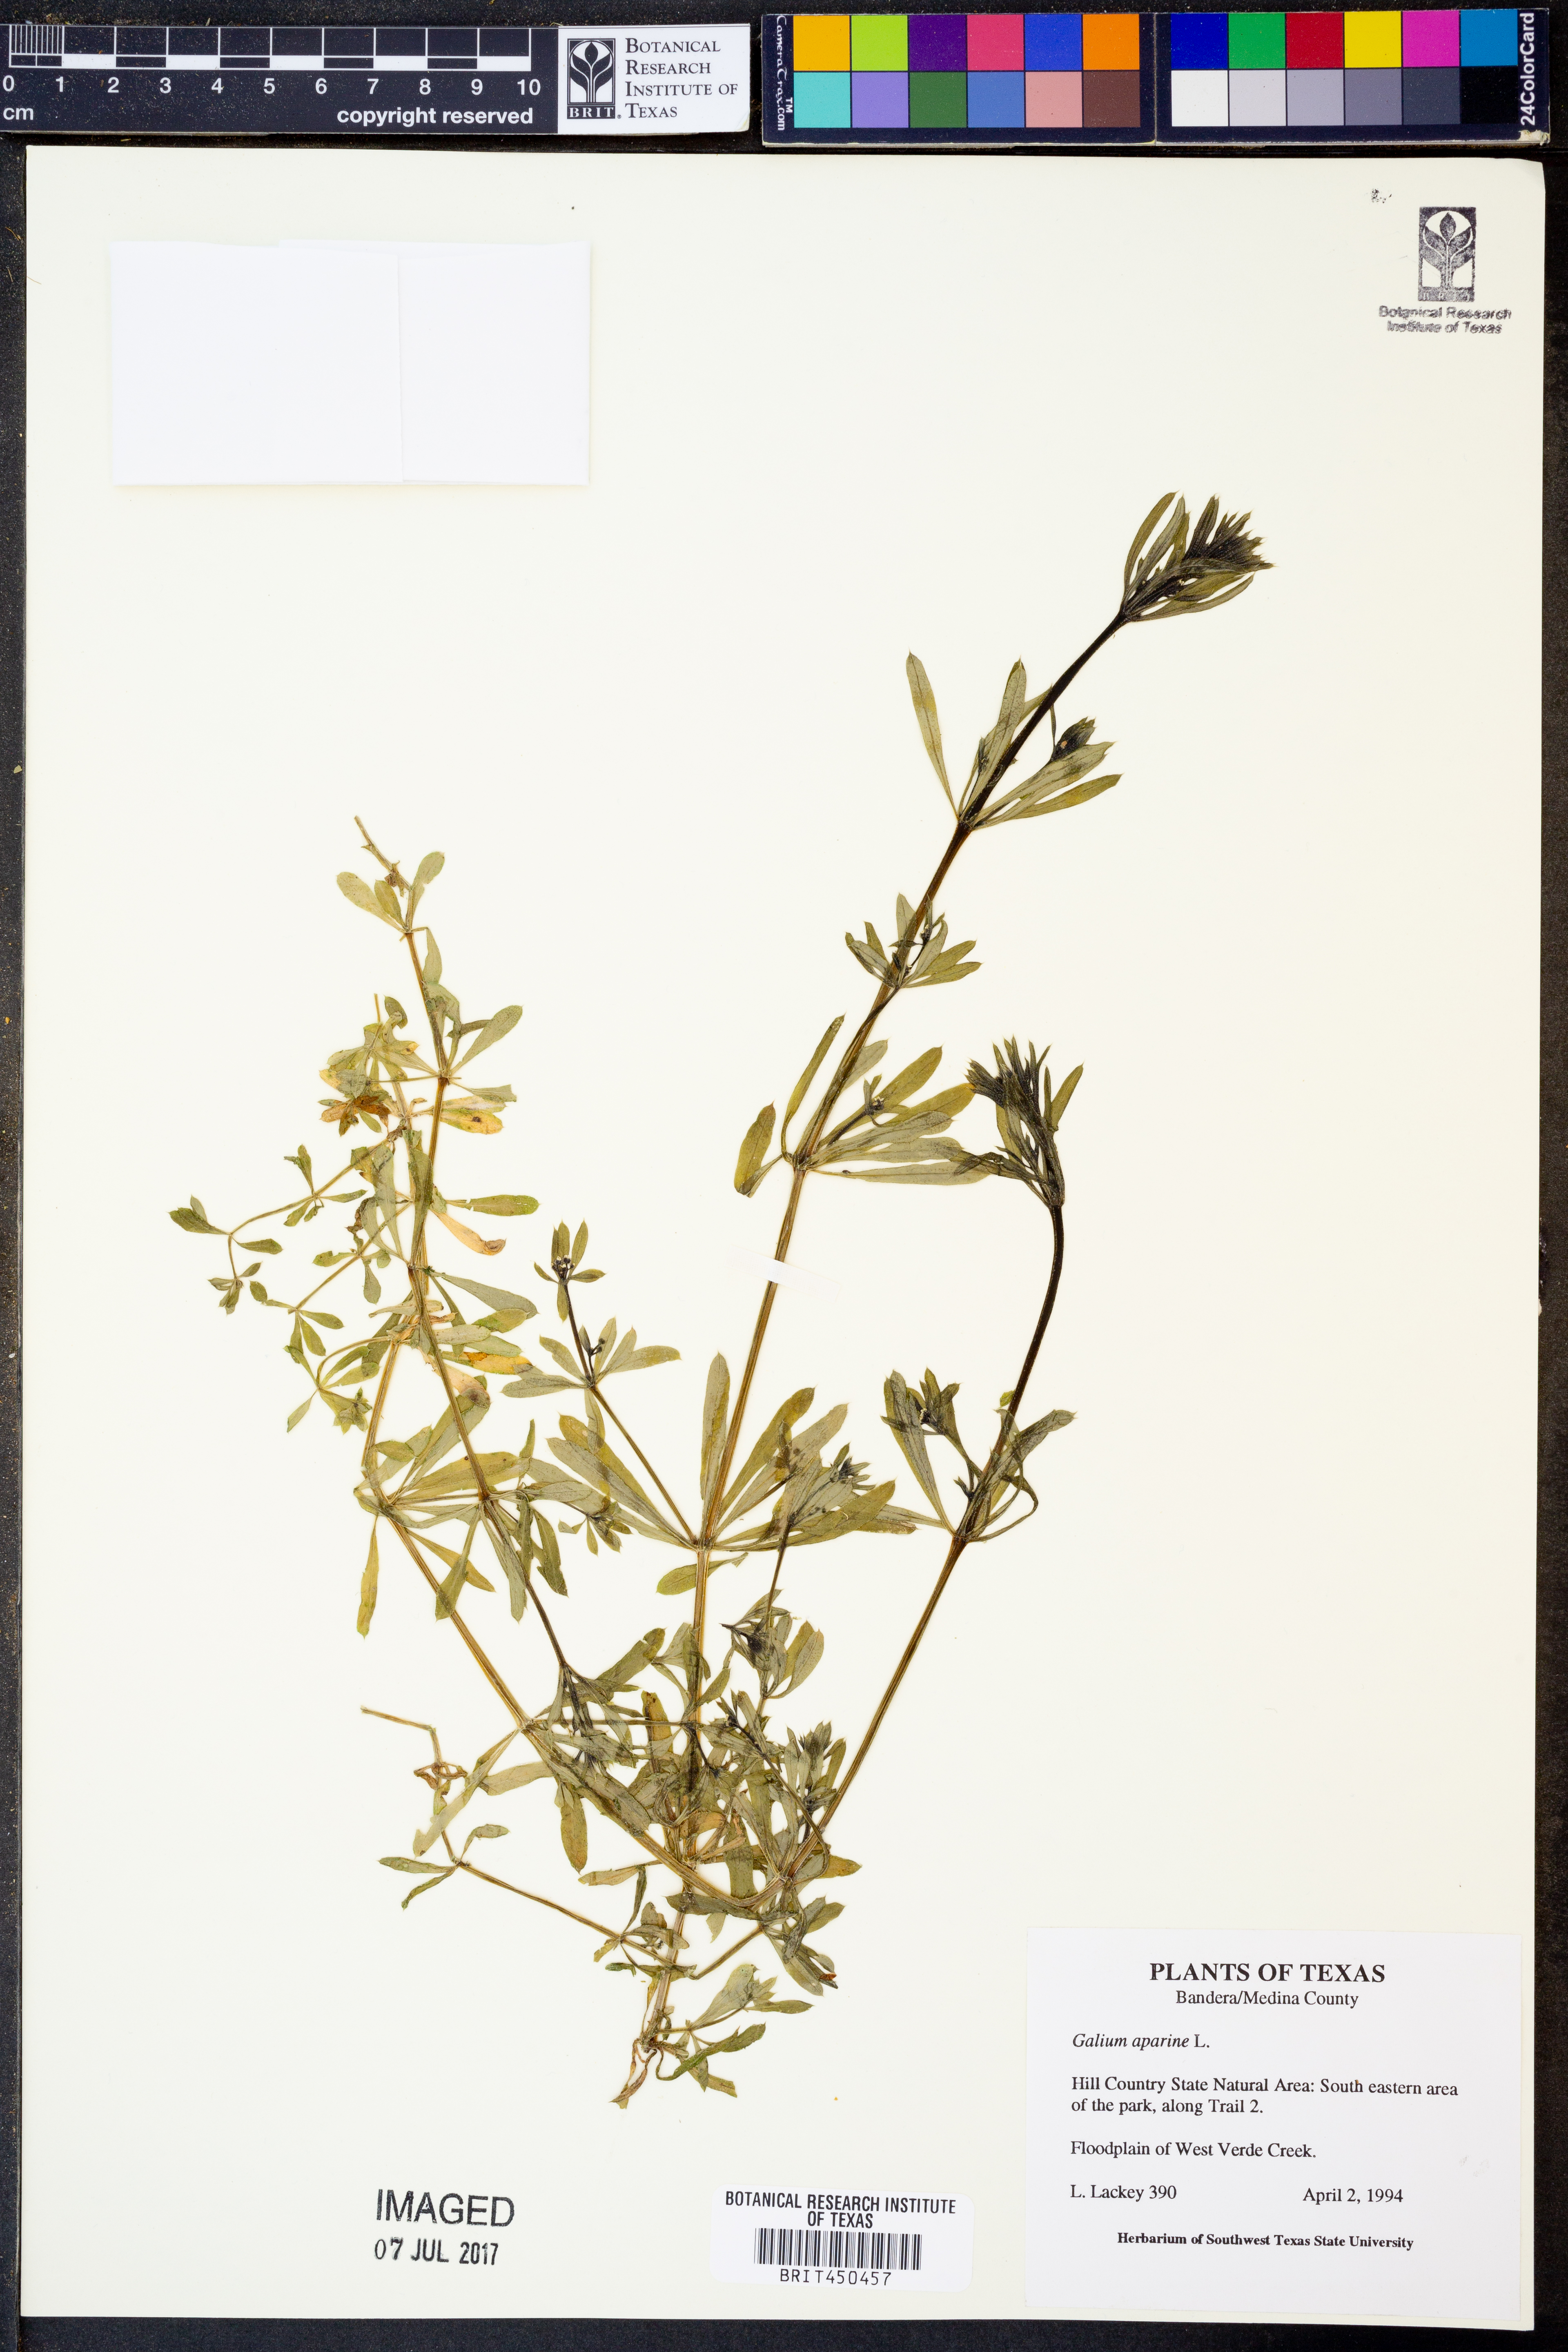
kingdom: Plantae
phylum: Tracheophyta
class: Magnoliopsida
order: Gentianales
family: Rubiaceae
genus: Galium
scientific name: Galium aparine
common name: Cleavers
